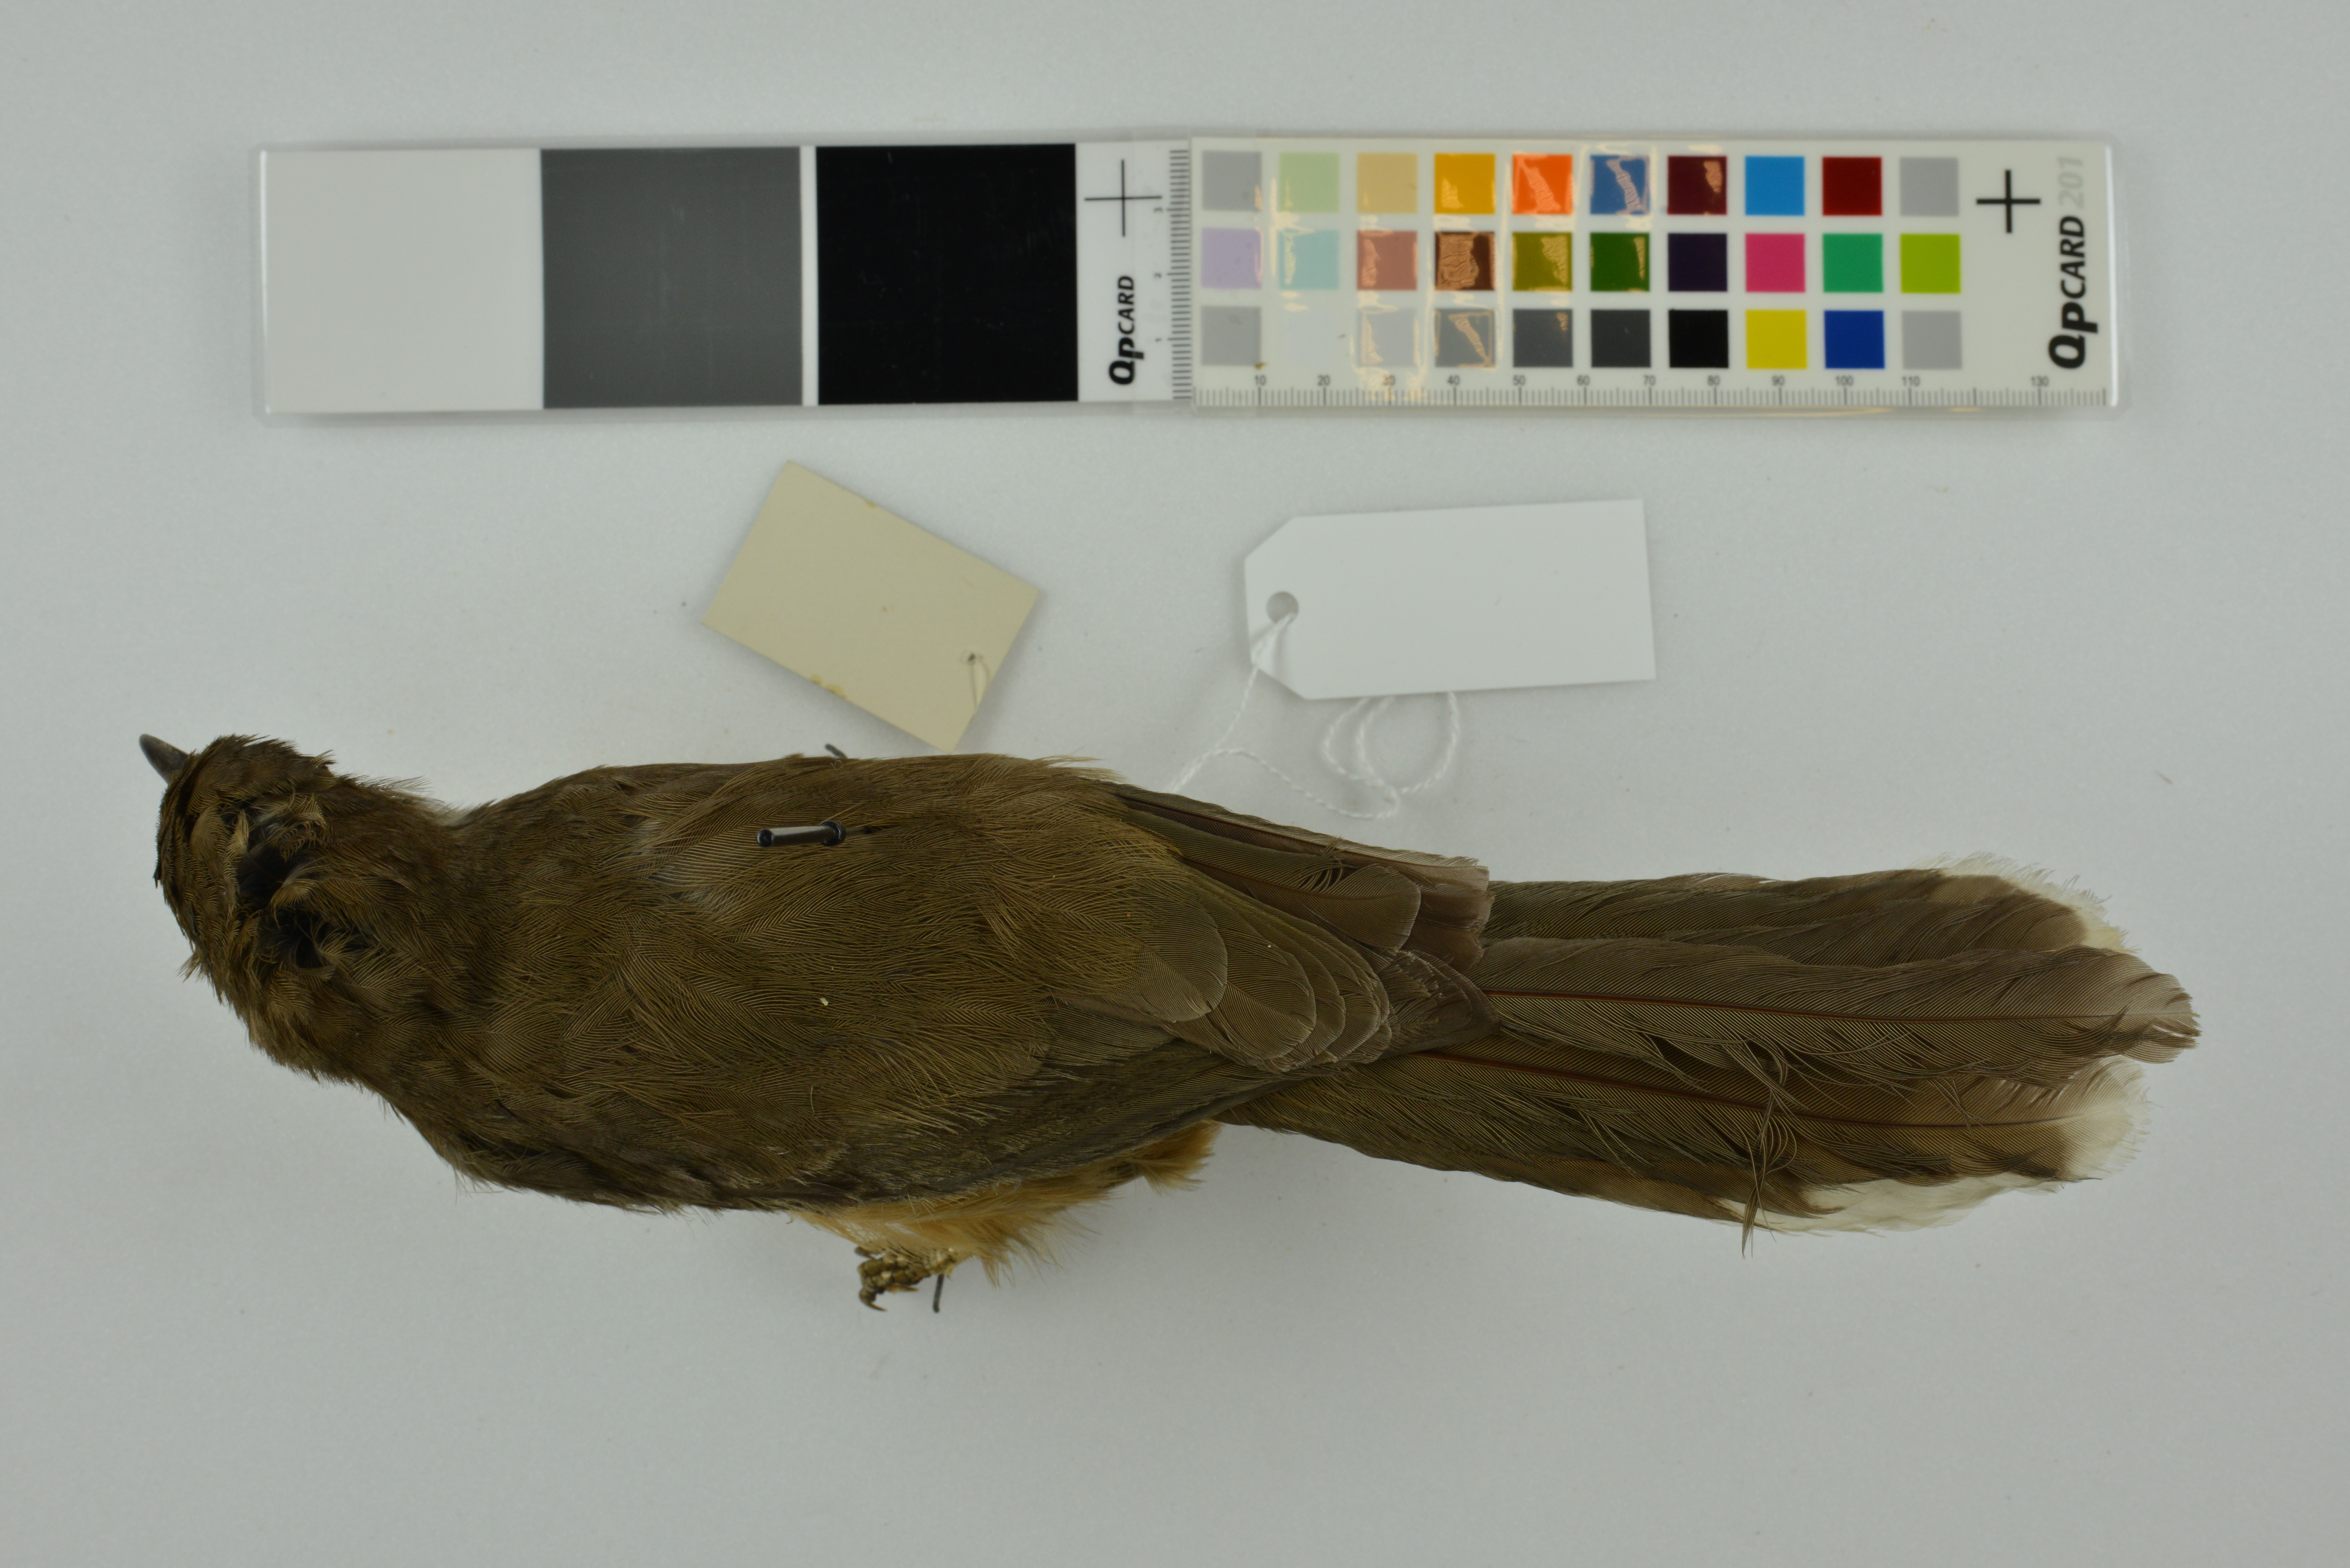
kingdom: Animalia
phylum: Chordata
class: Aves
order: Passeriformes
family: Leiothrichidae
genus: Garrulax
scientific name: Garrulax albogularis
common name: White-throated laughingthrush
